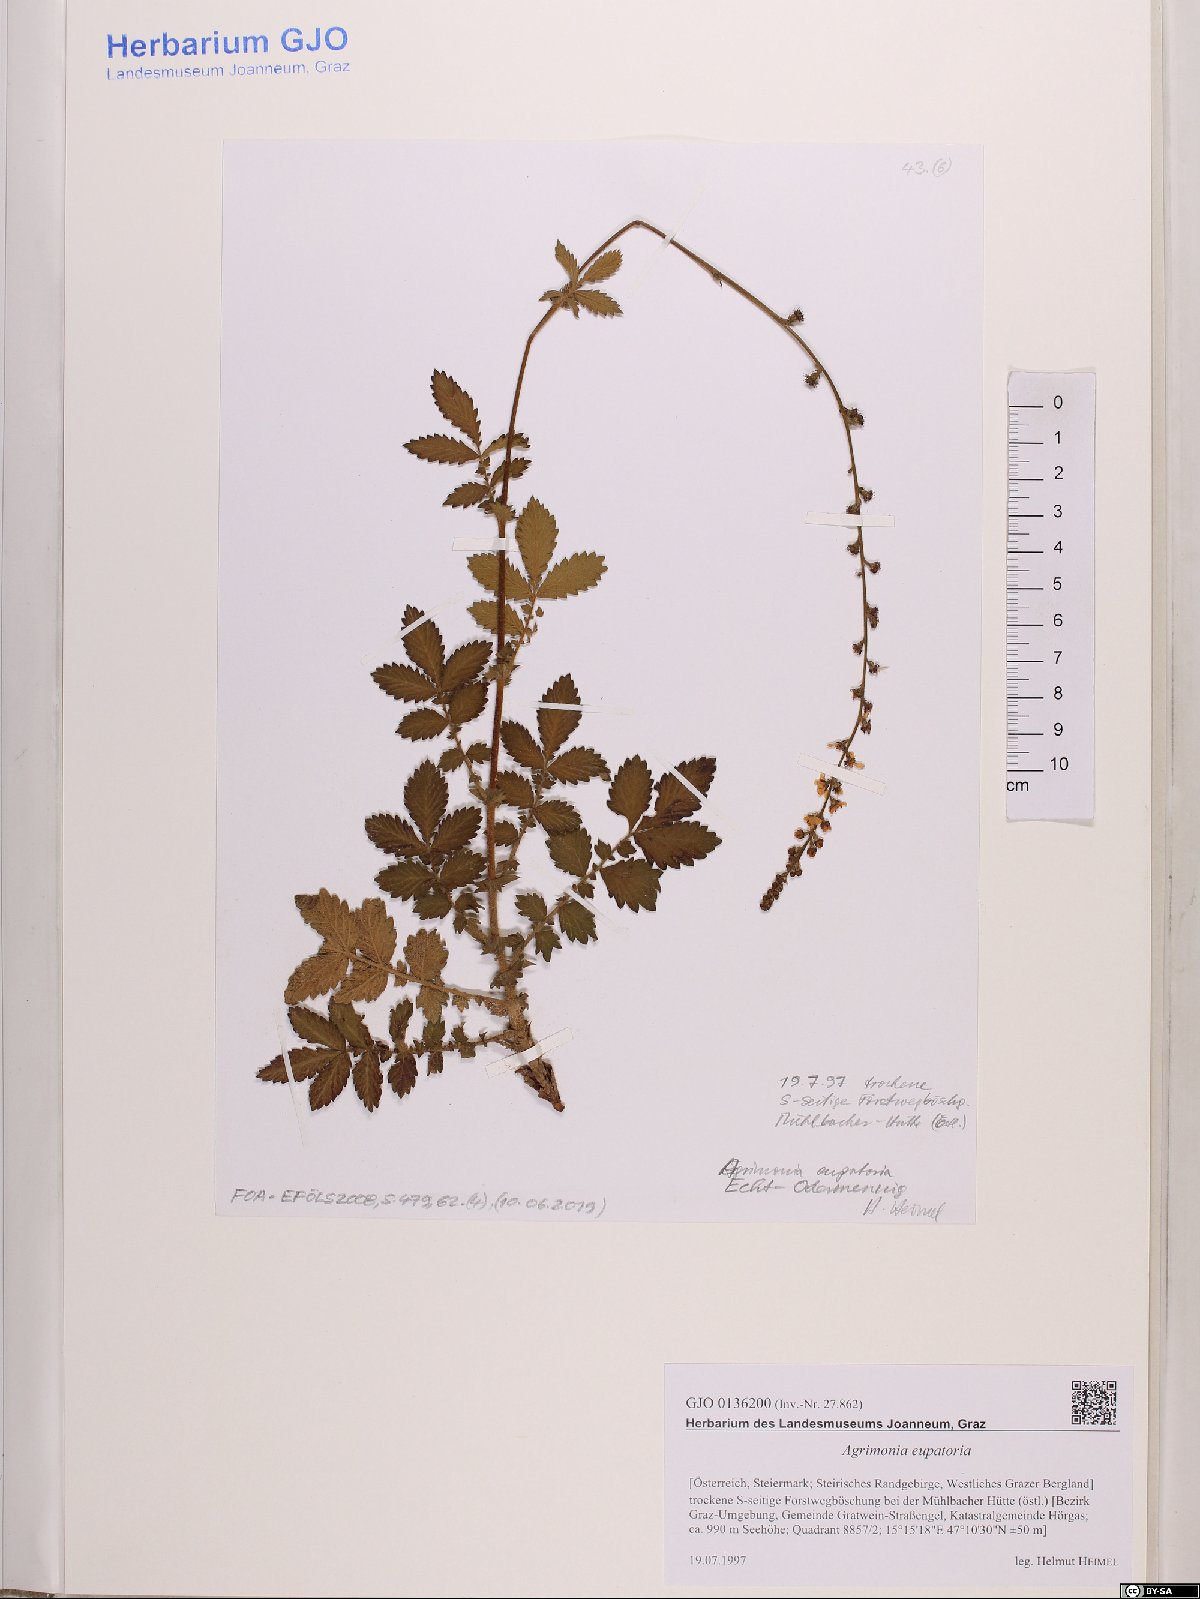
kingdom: Plantae
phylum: Tracheophyta
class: Magnoliopsida
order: Rosales
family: Rosaceae
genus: Agrimonia
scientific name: Agrimonia eupatoria
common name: Agrimony
